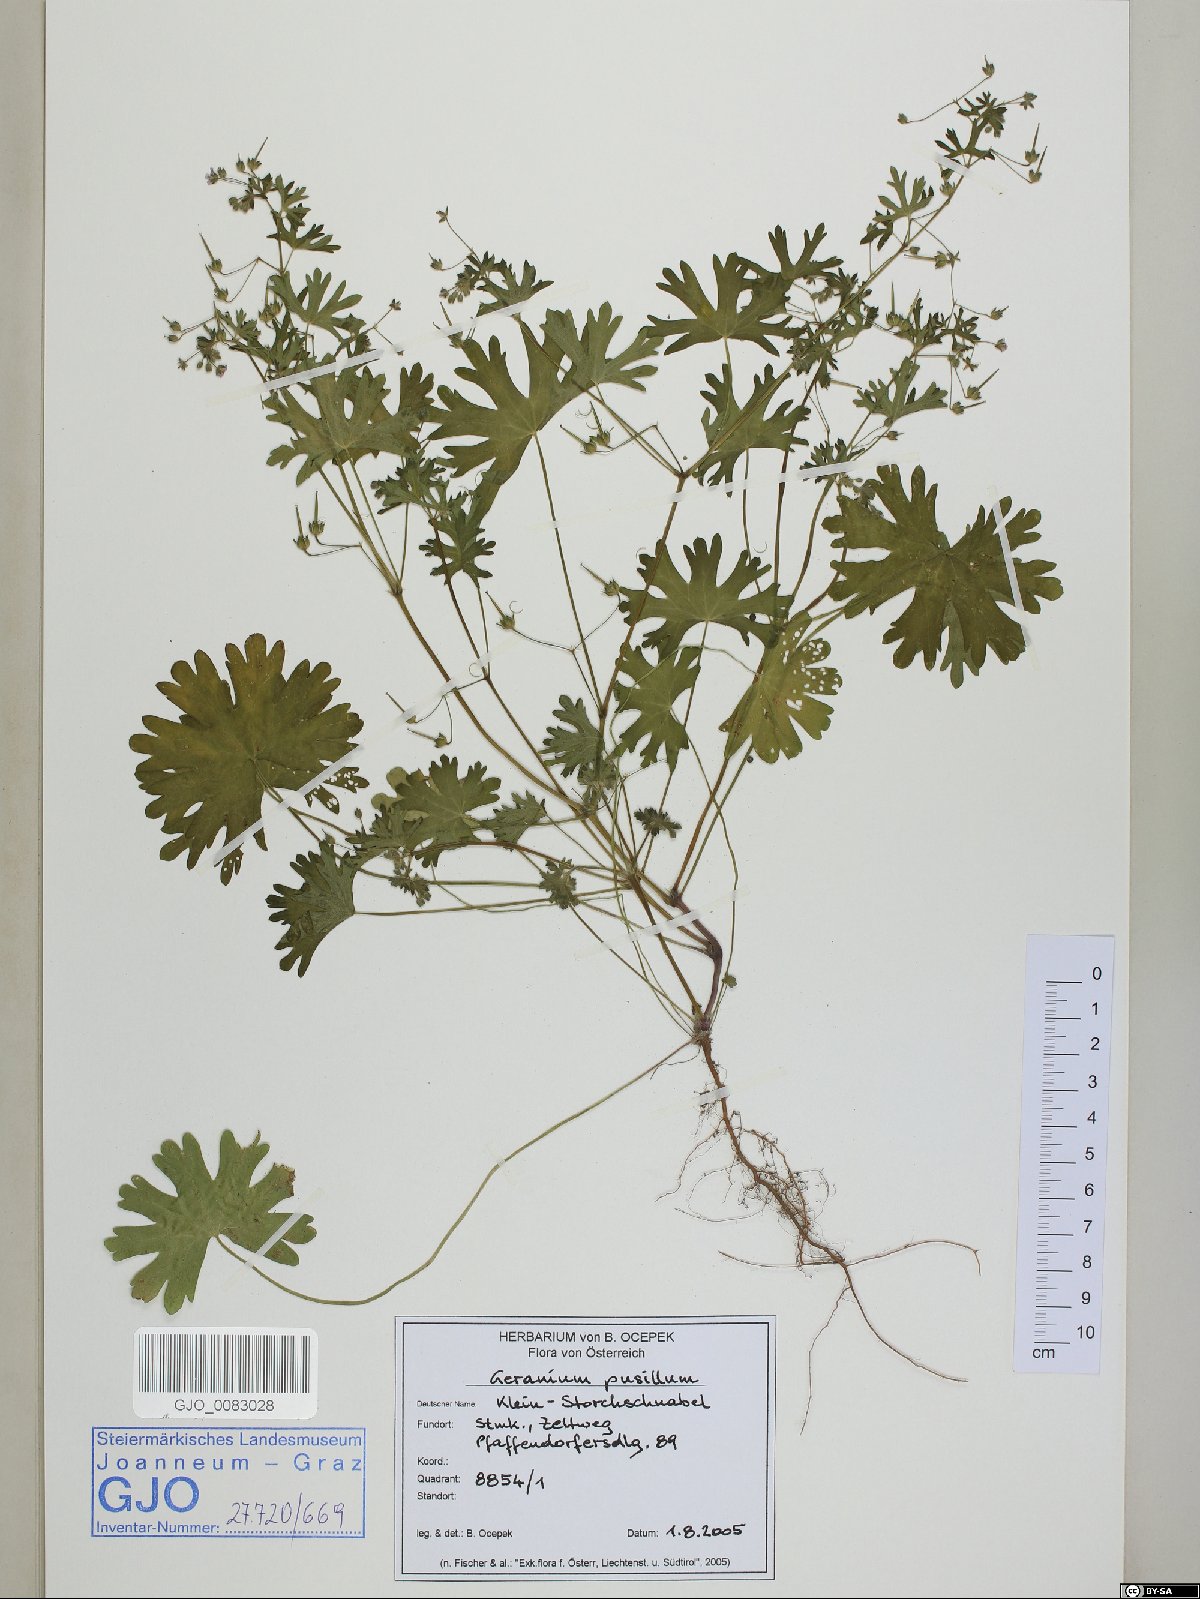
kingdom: Plantae
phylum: Tracheophyta
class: Magnoliopsida
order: Geraniales
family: Geraniaceae
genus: Geranium
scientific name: Geranium pusillum
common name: Small geranium
